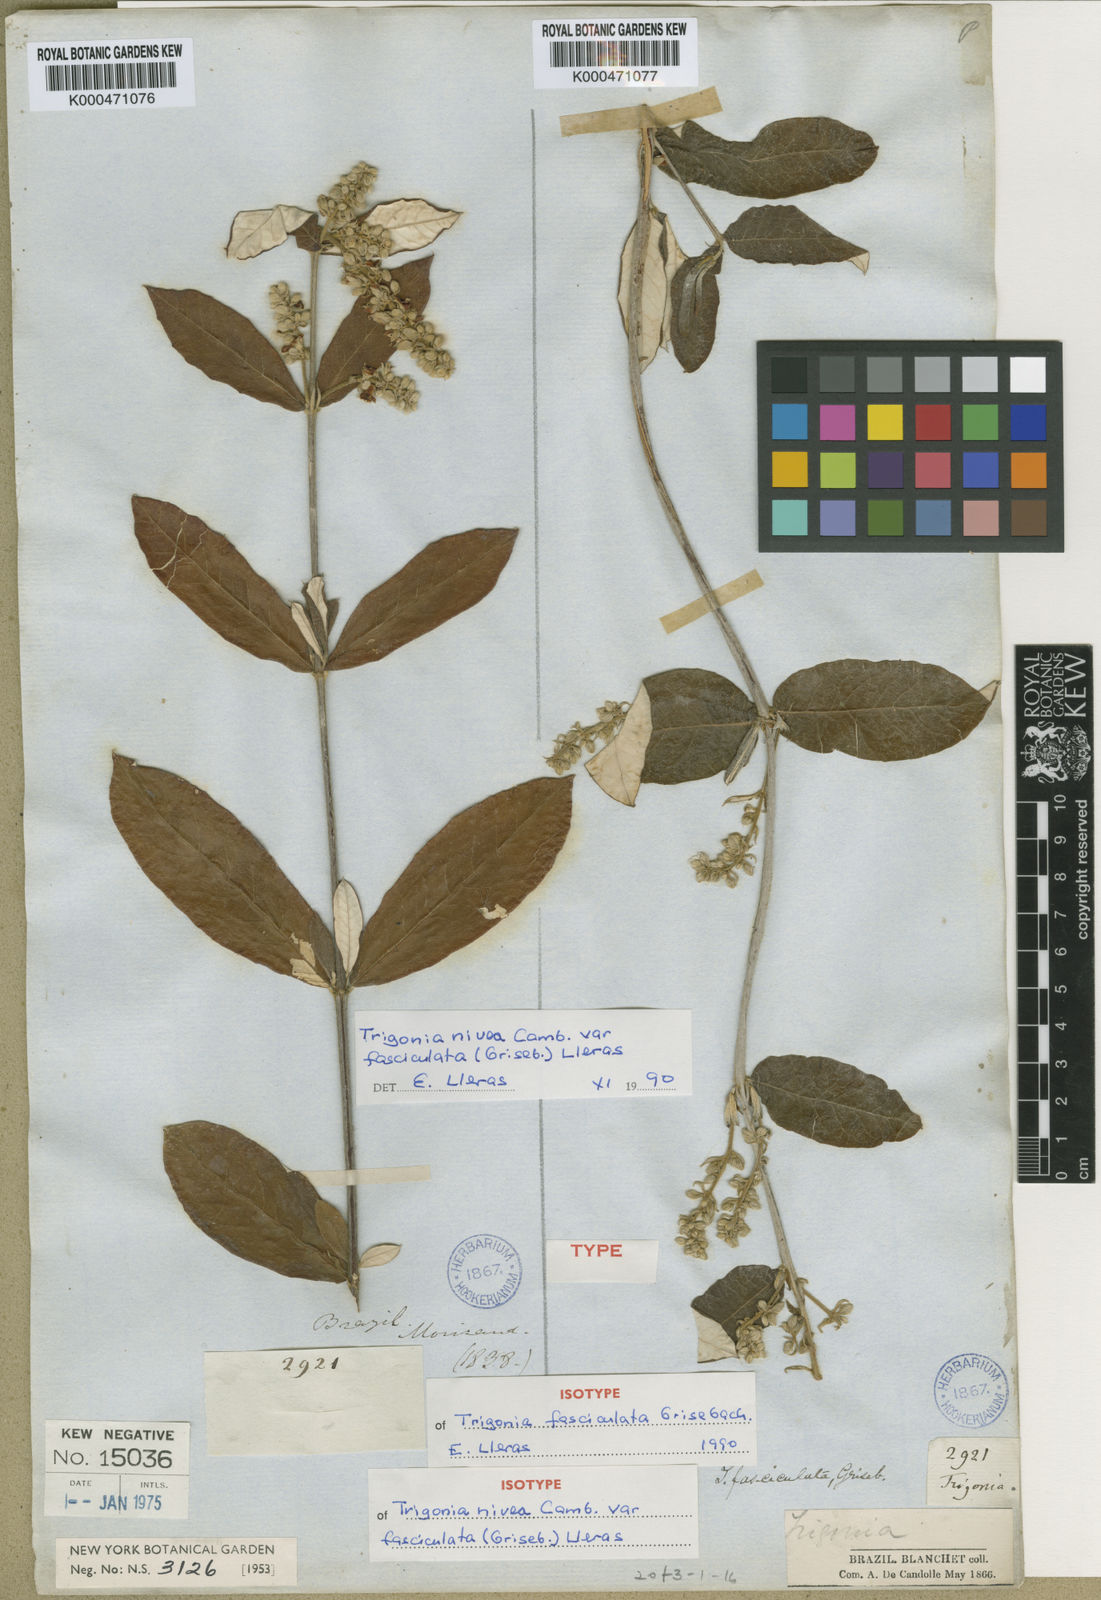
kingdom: Plantae
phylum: Tracheophyta
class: Magnoliopsida
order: Malpighiales
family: Trigoniaceae
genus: Trigonia
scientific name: Trigonia nivea
